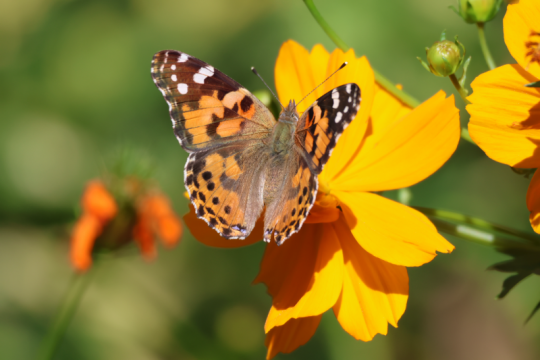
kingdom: Animalia
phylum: Arthropoda
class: Insecta
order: Lepidoptera
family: Nymphalidae
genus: Vanessa
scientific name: Vanessa cardui
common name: Painted Lady
